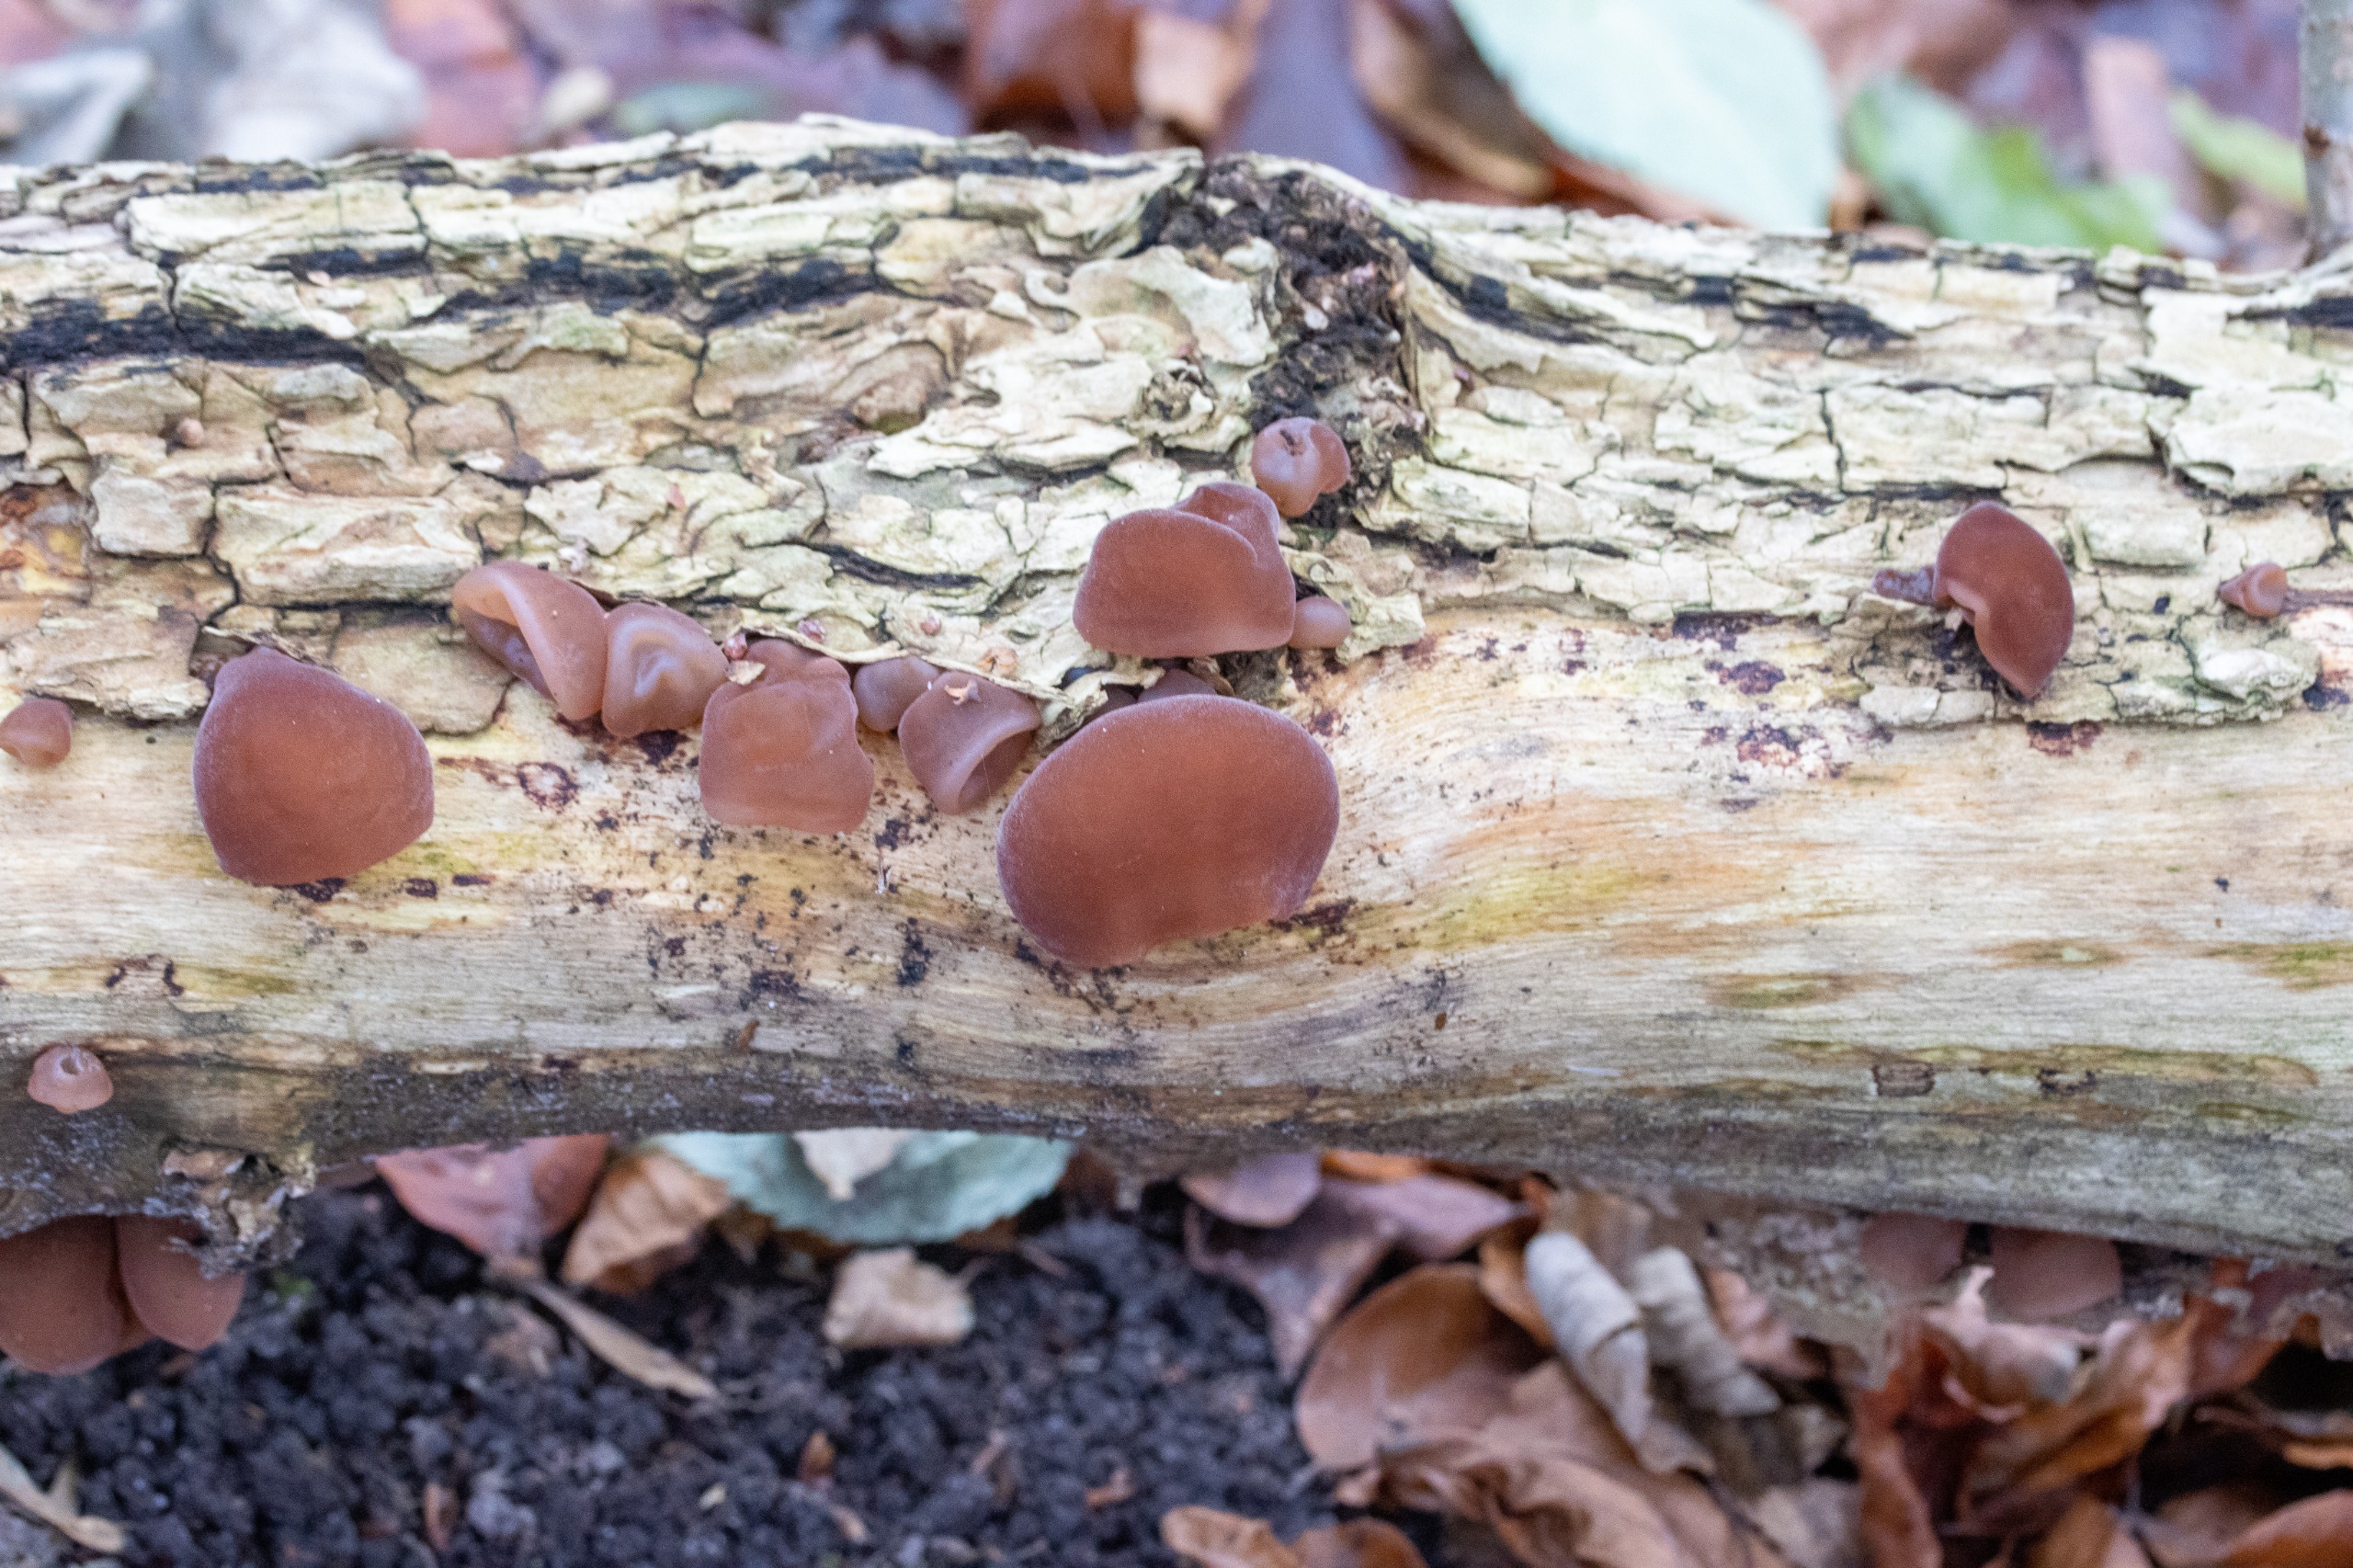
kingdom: Fungi
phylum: Basidiomycota
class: Agaricomycetes
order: Auriculariales
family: Auriculariaceae
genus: Auricularia
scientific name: Auricularia auricula-judae
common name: Almindelig judasøre
